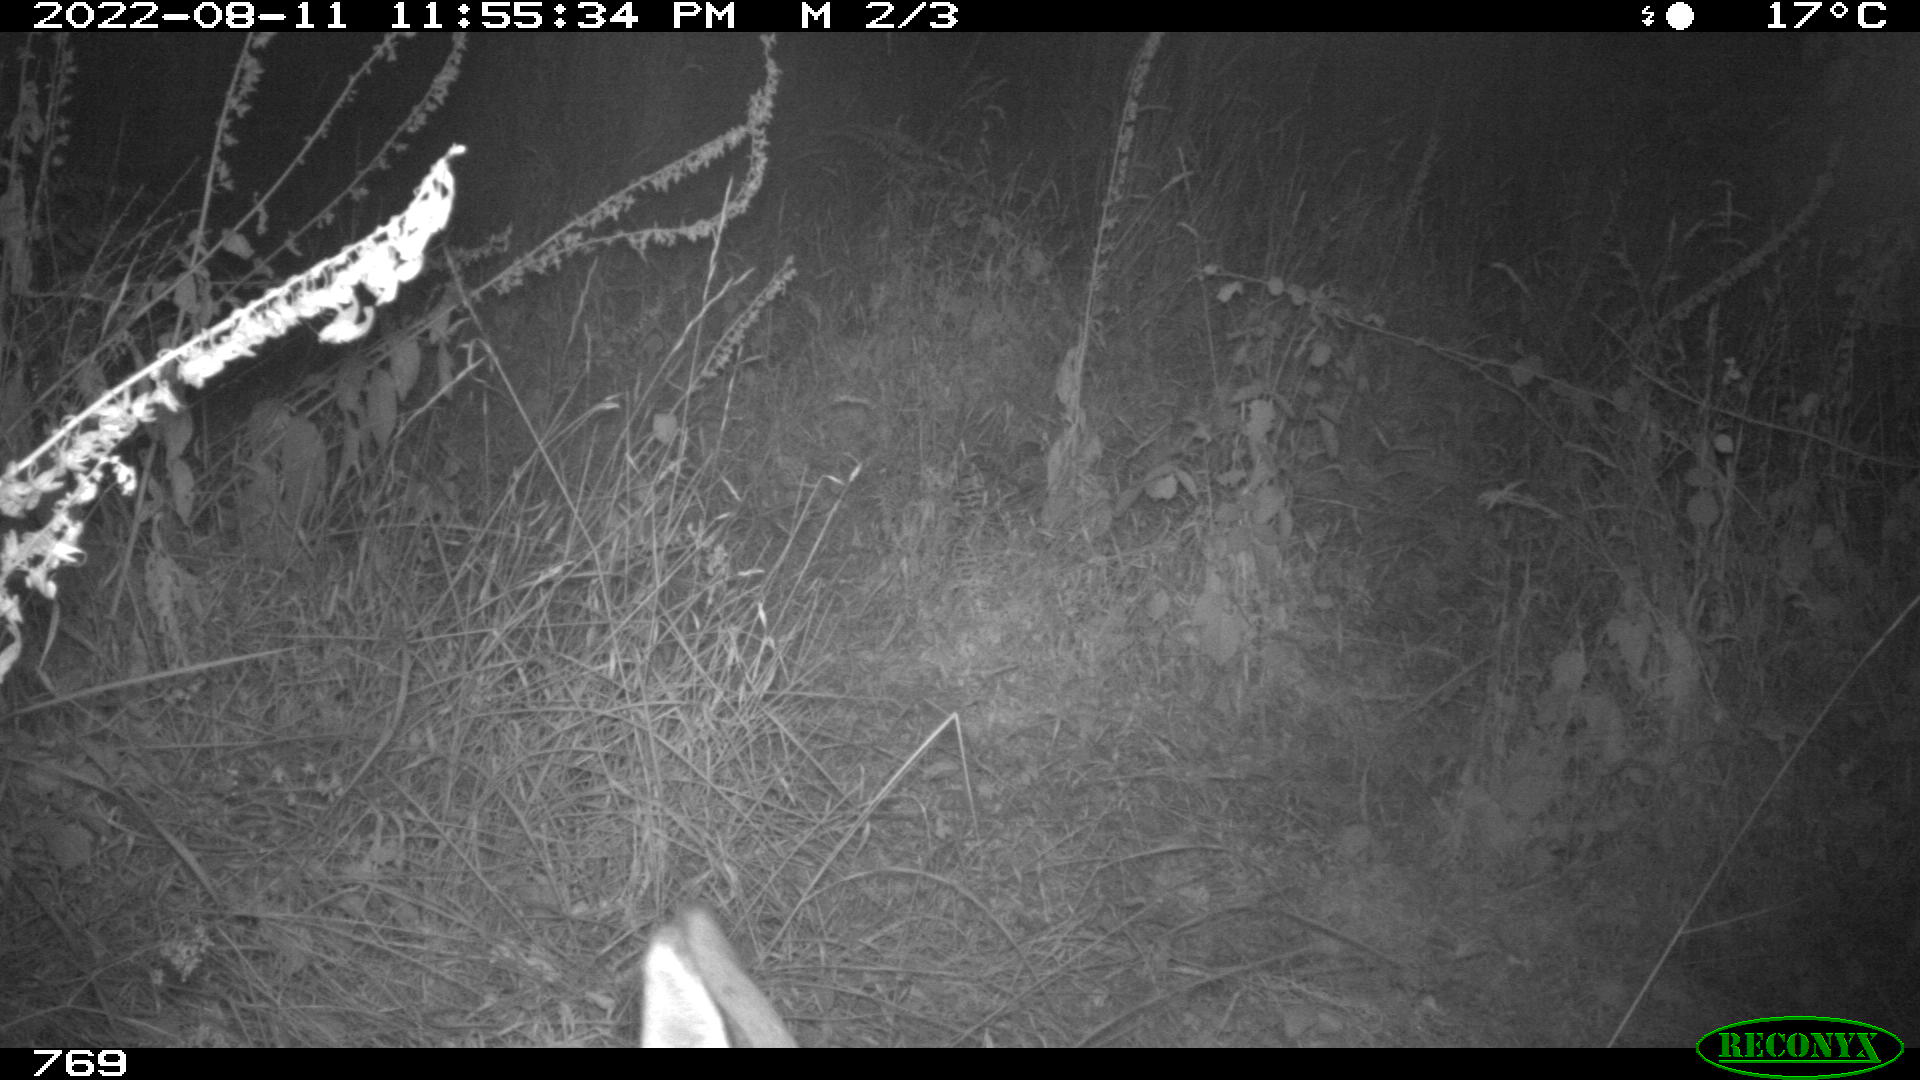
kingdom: Animalia
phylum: Chordata
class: Mammalia
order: Artiodactyla
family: Cervidae
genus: Capreolus
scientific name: Capreolus capreolus
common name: Western roe deer
